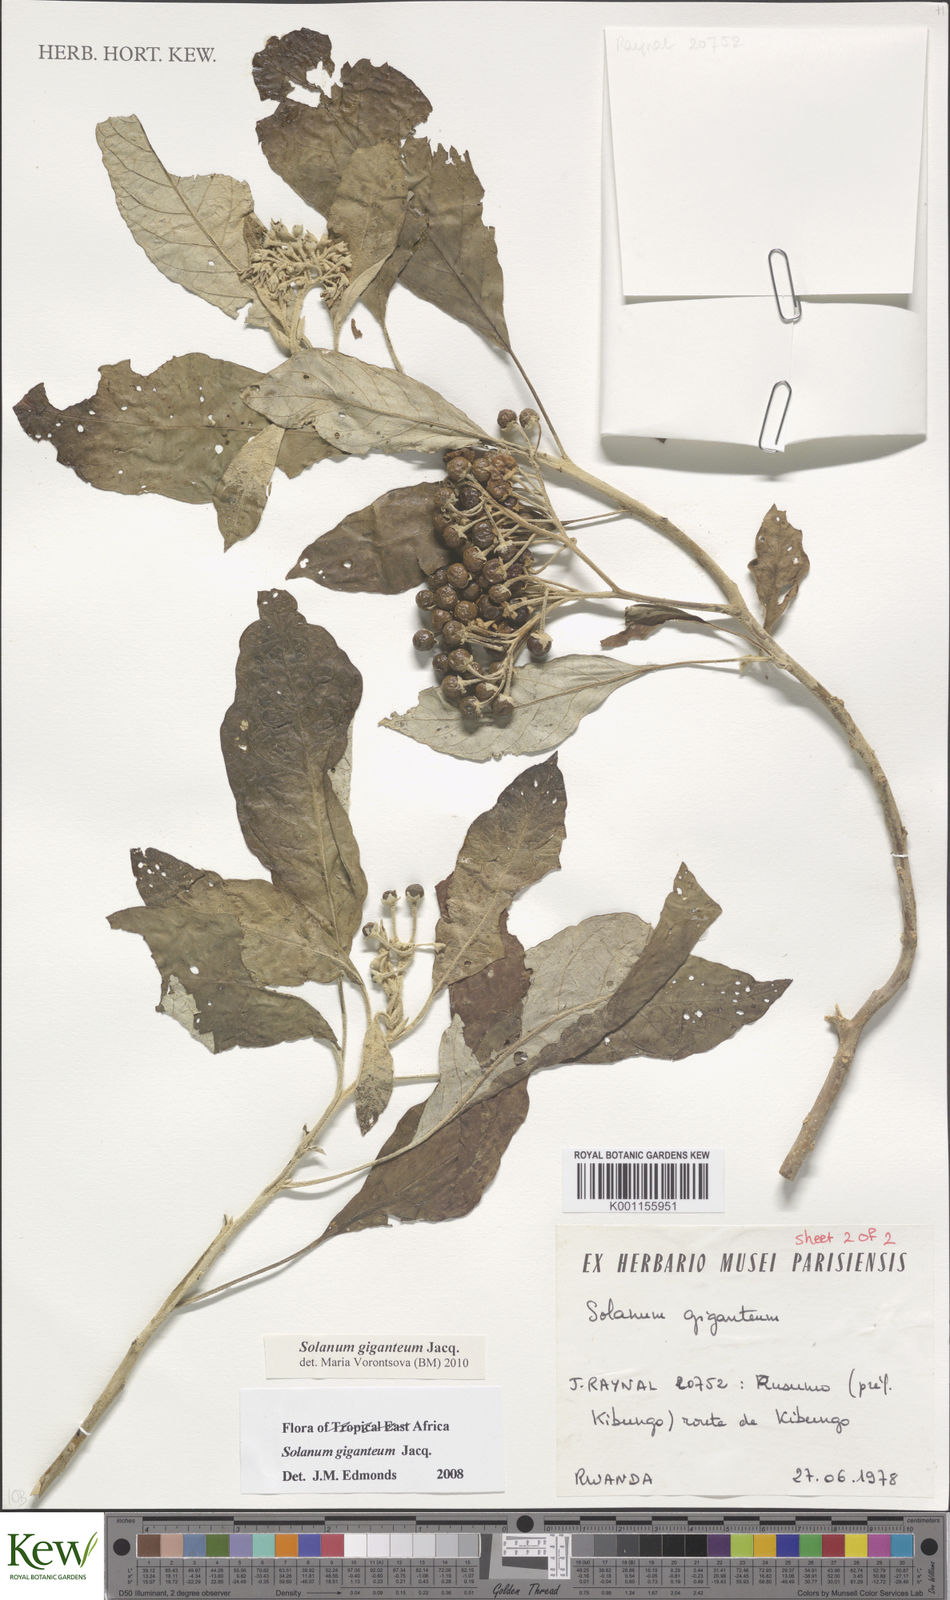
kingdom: Plantae
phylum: Tracheophyta
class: Magnoliopsida
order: Solanales
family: Solanaceae
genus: Solanum
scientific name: Solanum giganteum
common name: Healing-leaf-tree
